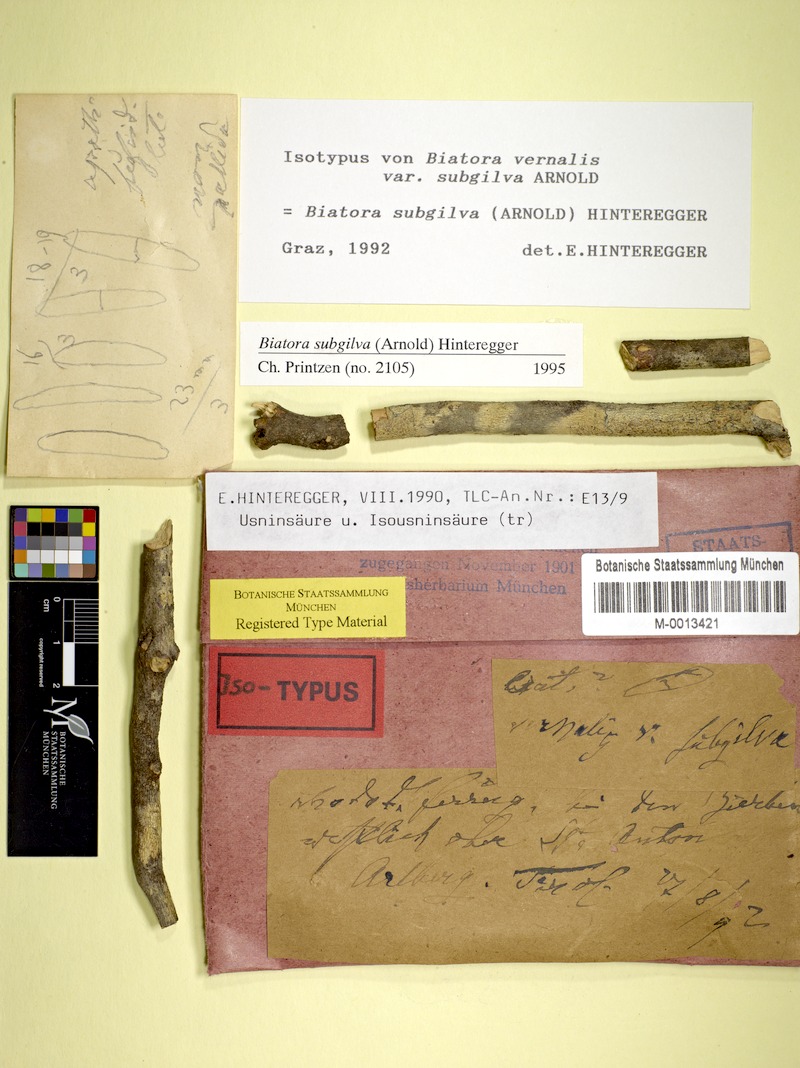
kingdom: Fungi
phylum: Ascomycota
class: Lecanoromycetes
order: Lecanorales
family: Ramalinaceae
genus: Biatora
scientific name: Biatora subgilva
